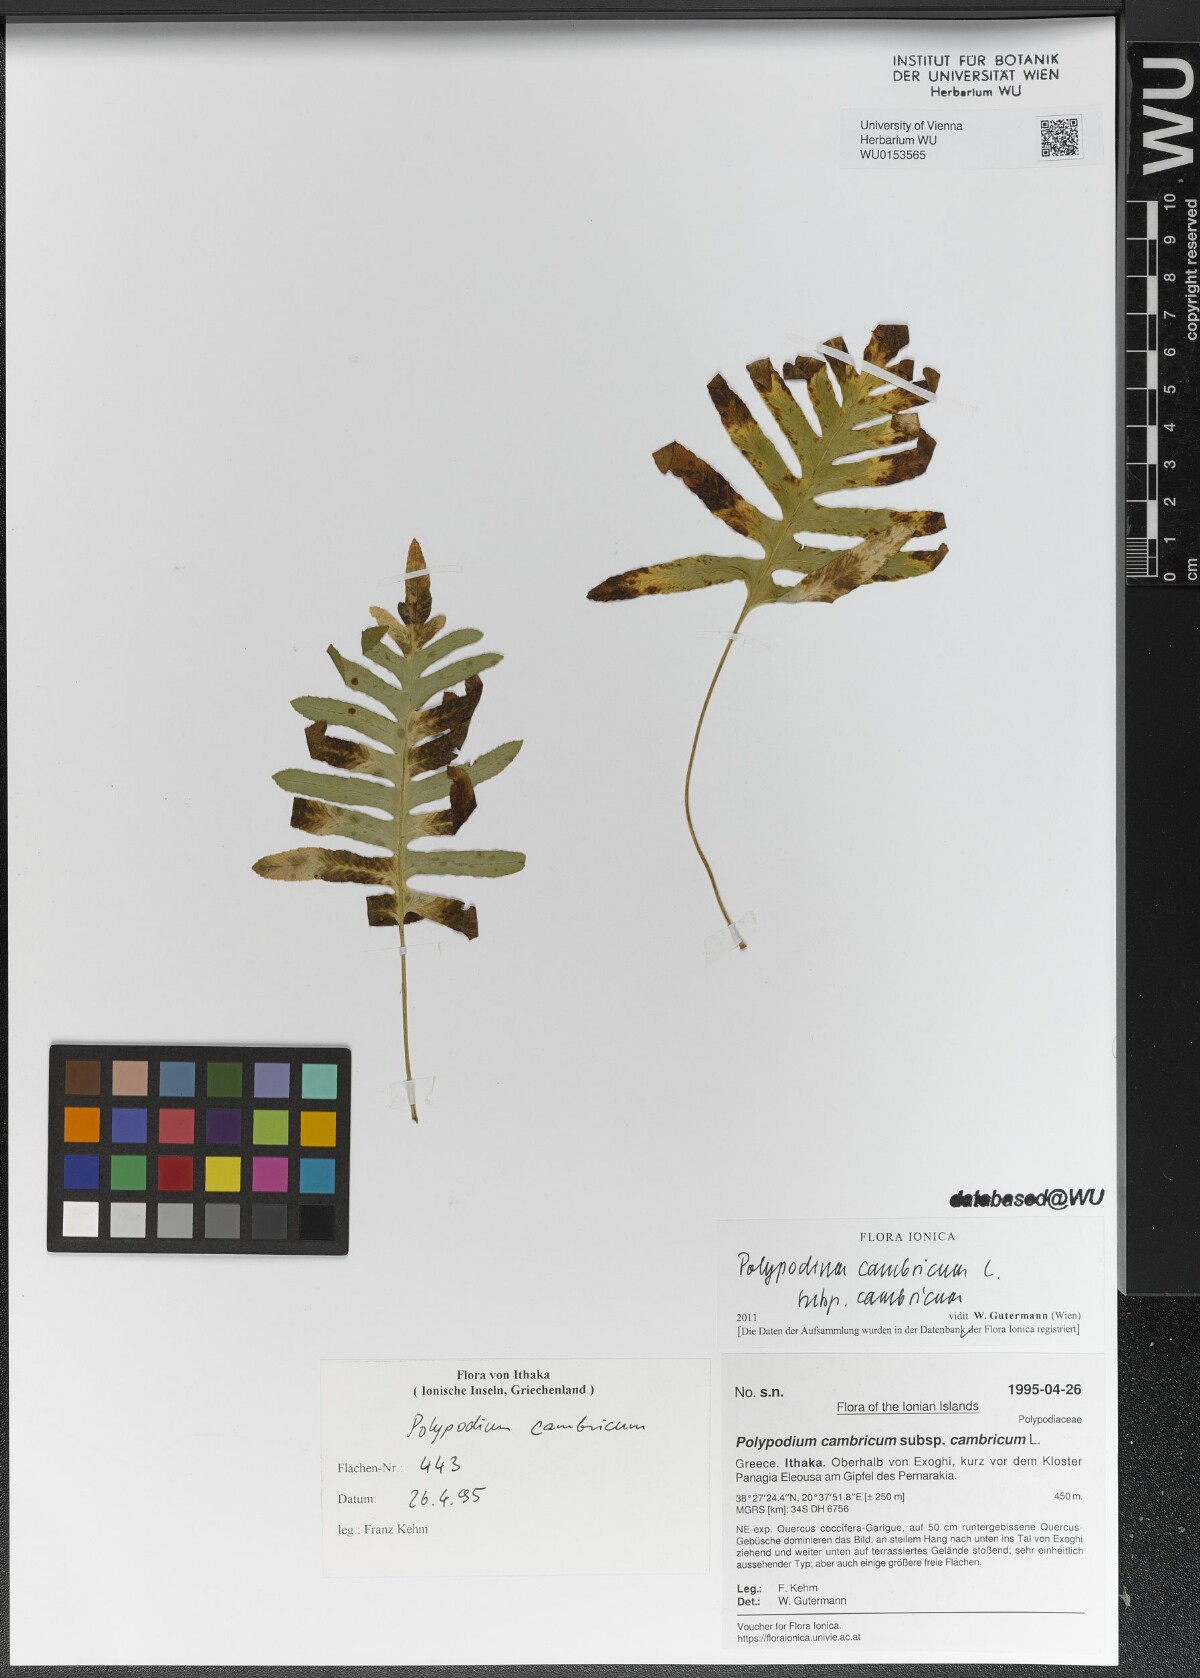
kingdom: Plantae
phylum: Tracheophyta
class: Polypodiopsida
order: Polypodiales
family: Polypodiaceae
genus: Polypodium
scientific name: Polypodium cambricum
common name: Southern polypody
